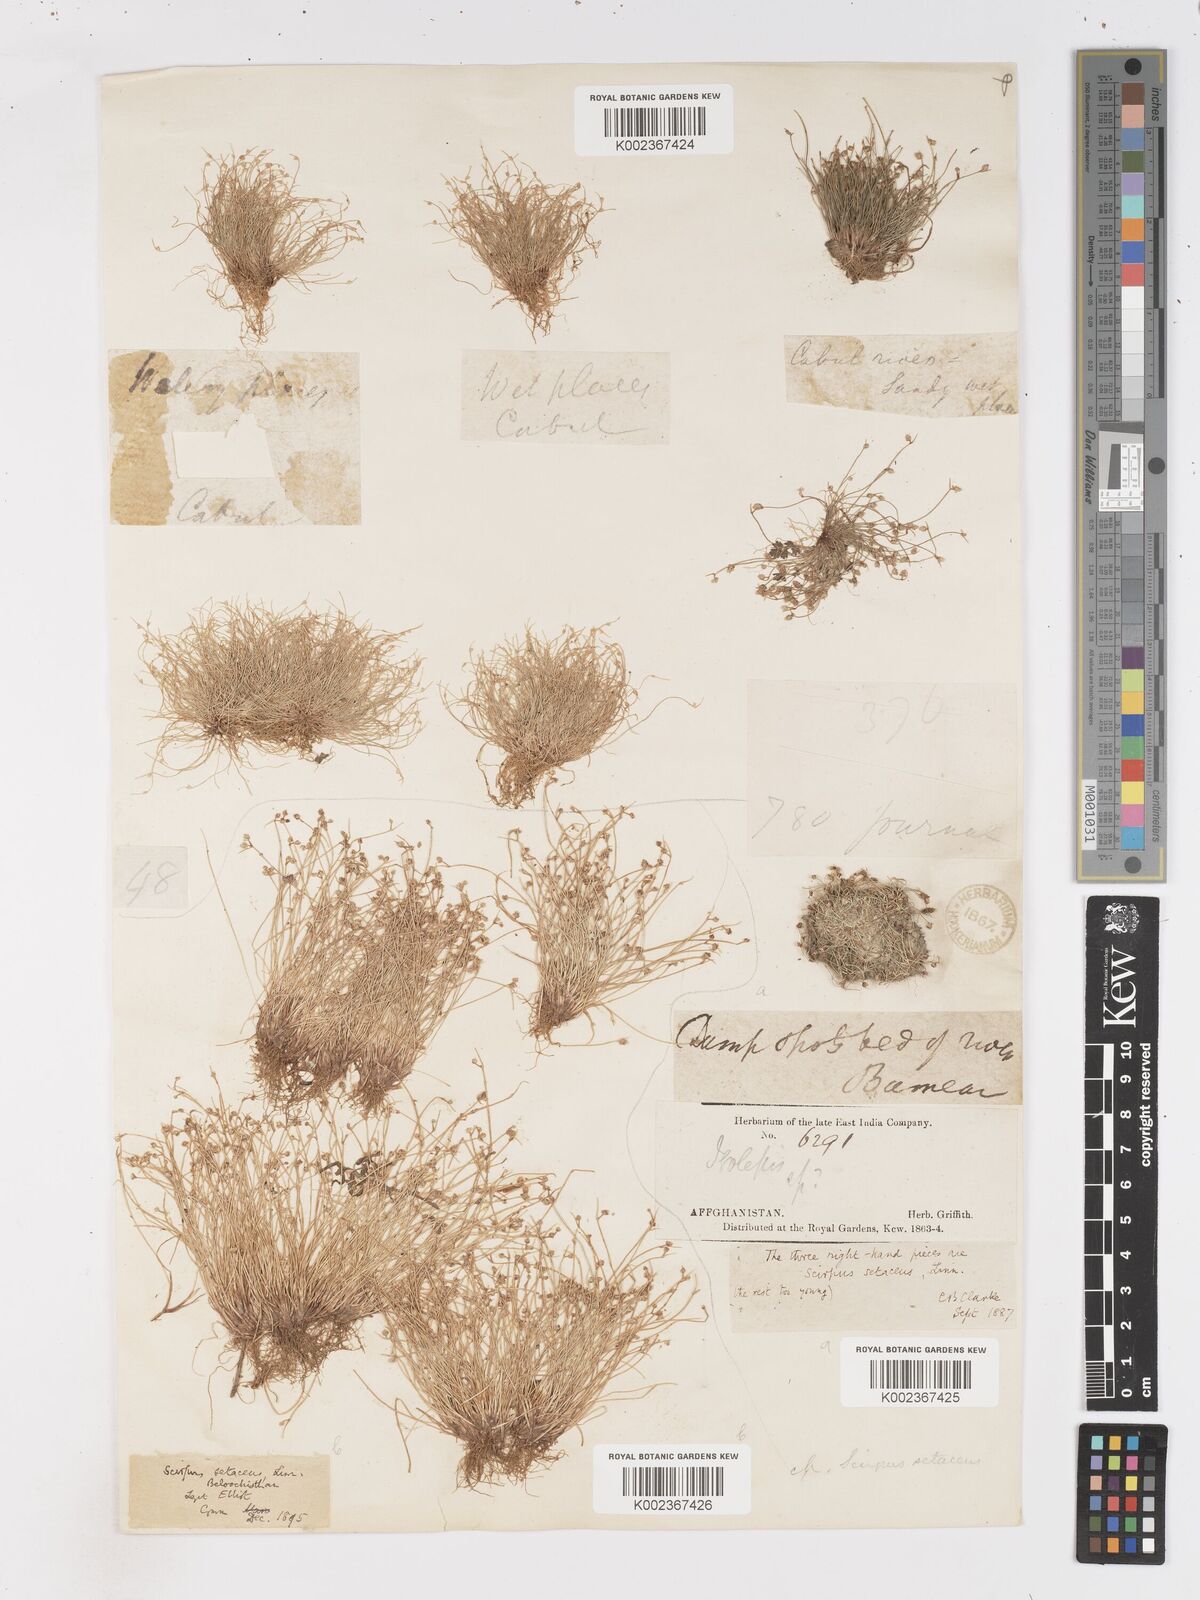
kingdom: Plantae
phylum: Tracheophyta
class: Liliopsida
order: Poales
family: Cyperaceae
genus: Isolepis
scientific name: Isolepis setacea
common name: Bristle club-rush
